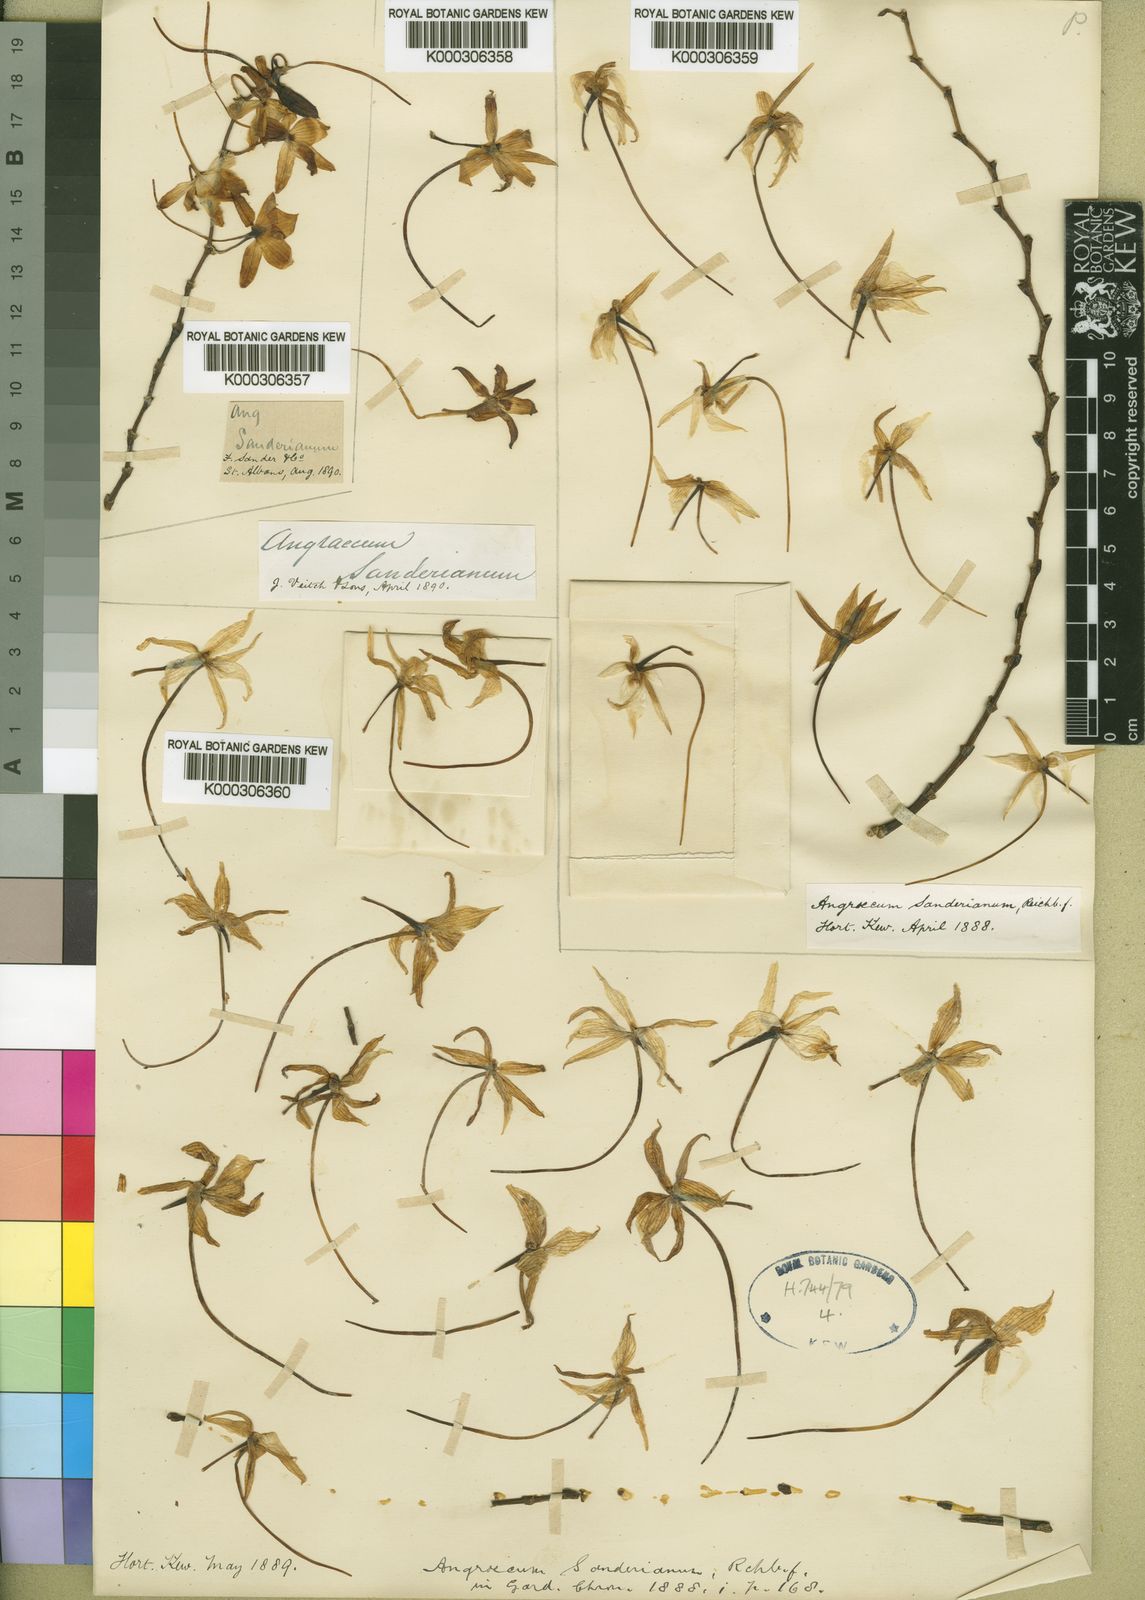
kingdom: Plantae
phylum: Tracheophyta
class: Liliopsida
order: Asparagales
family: Orchidaceae
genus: Aerangis
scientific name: Aerangis
